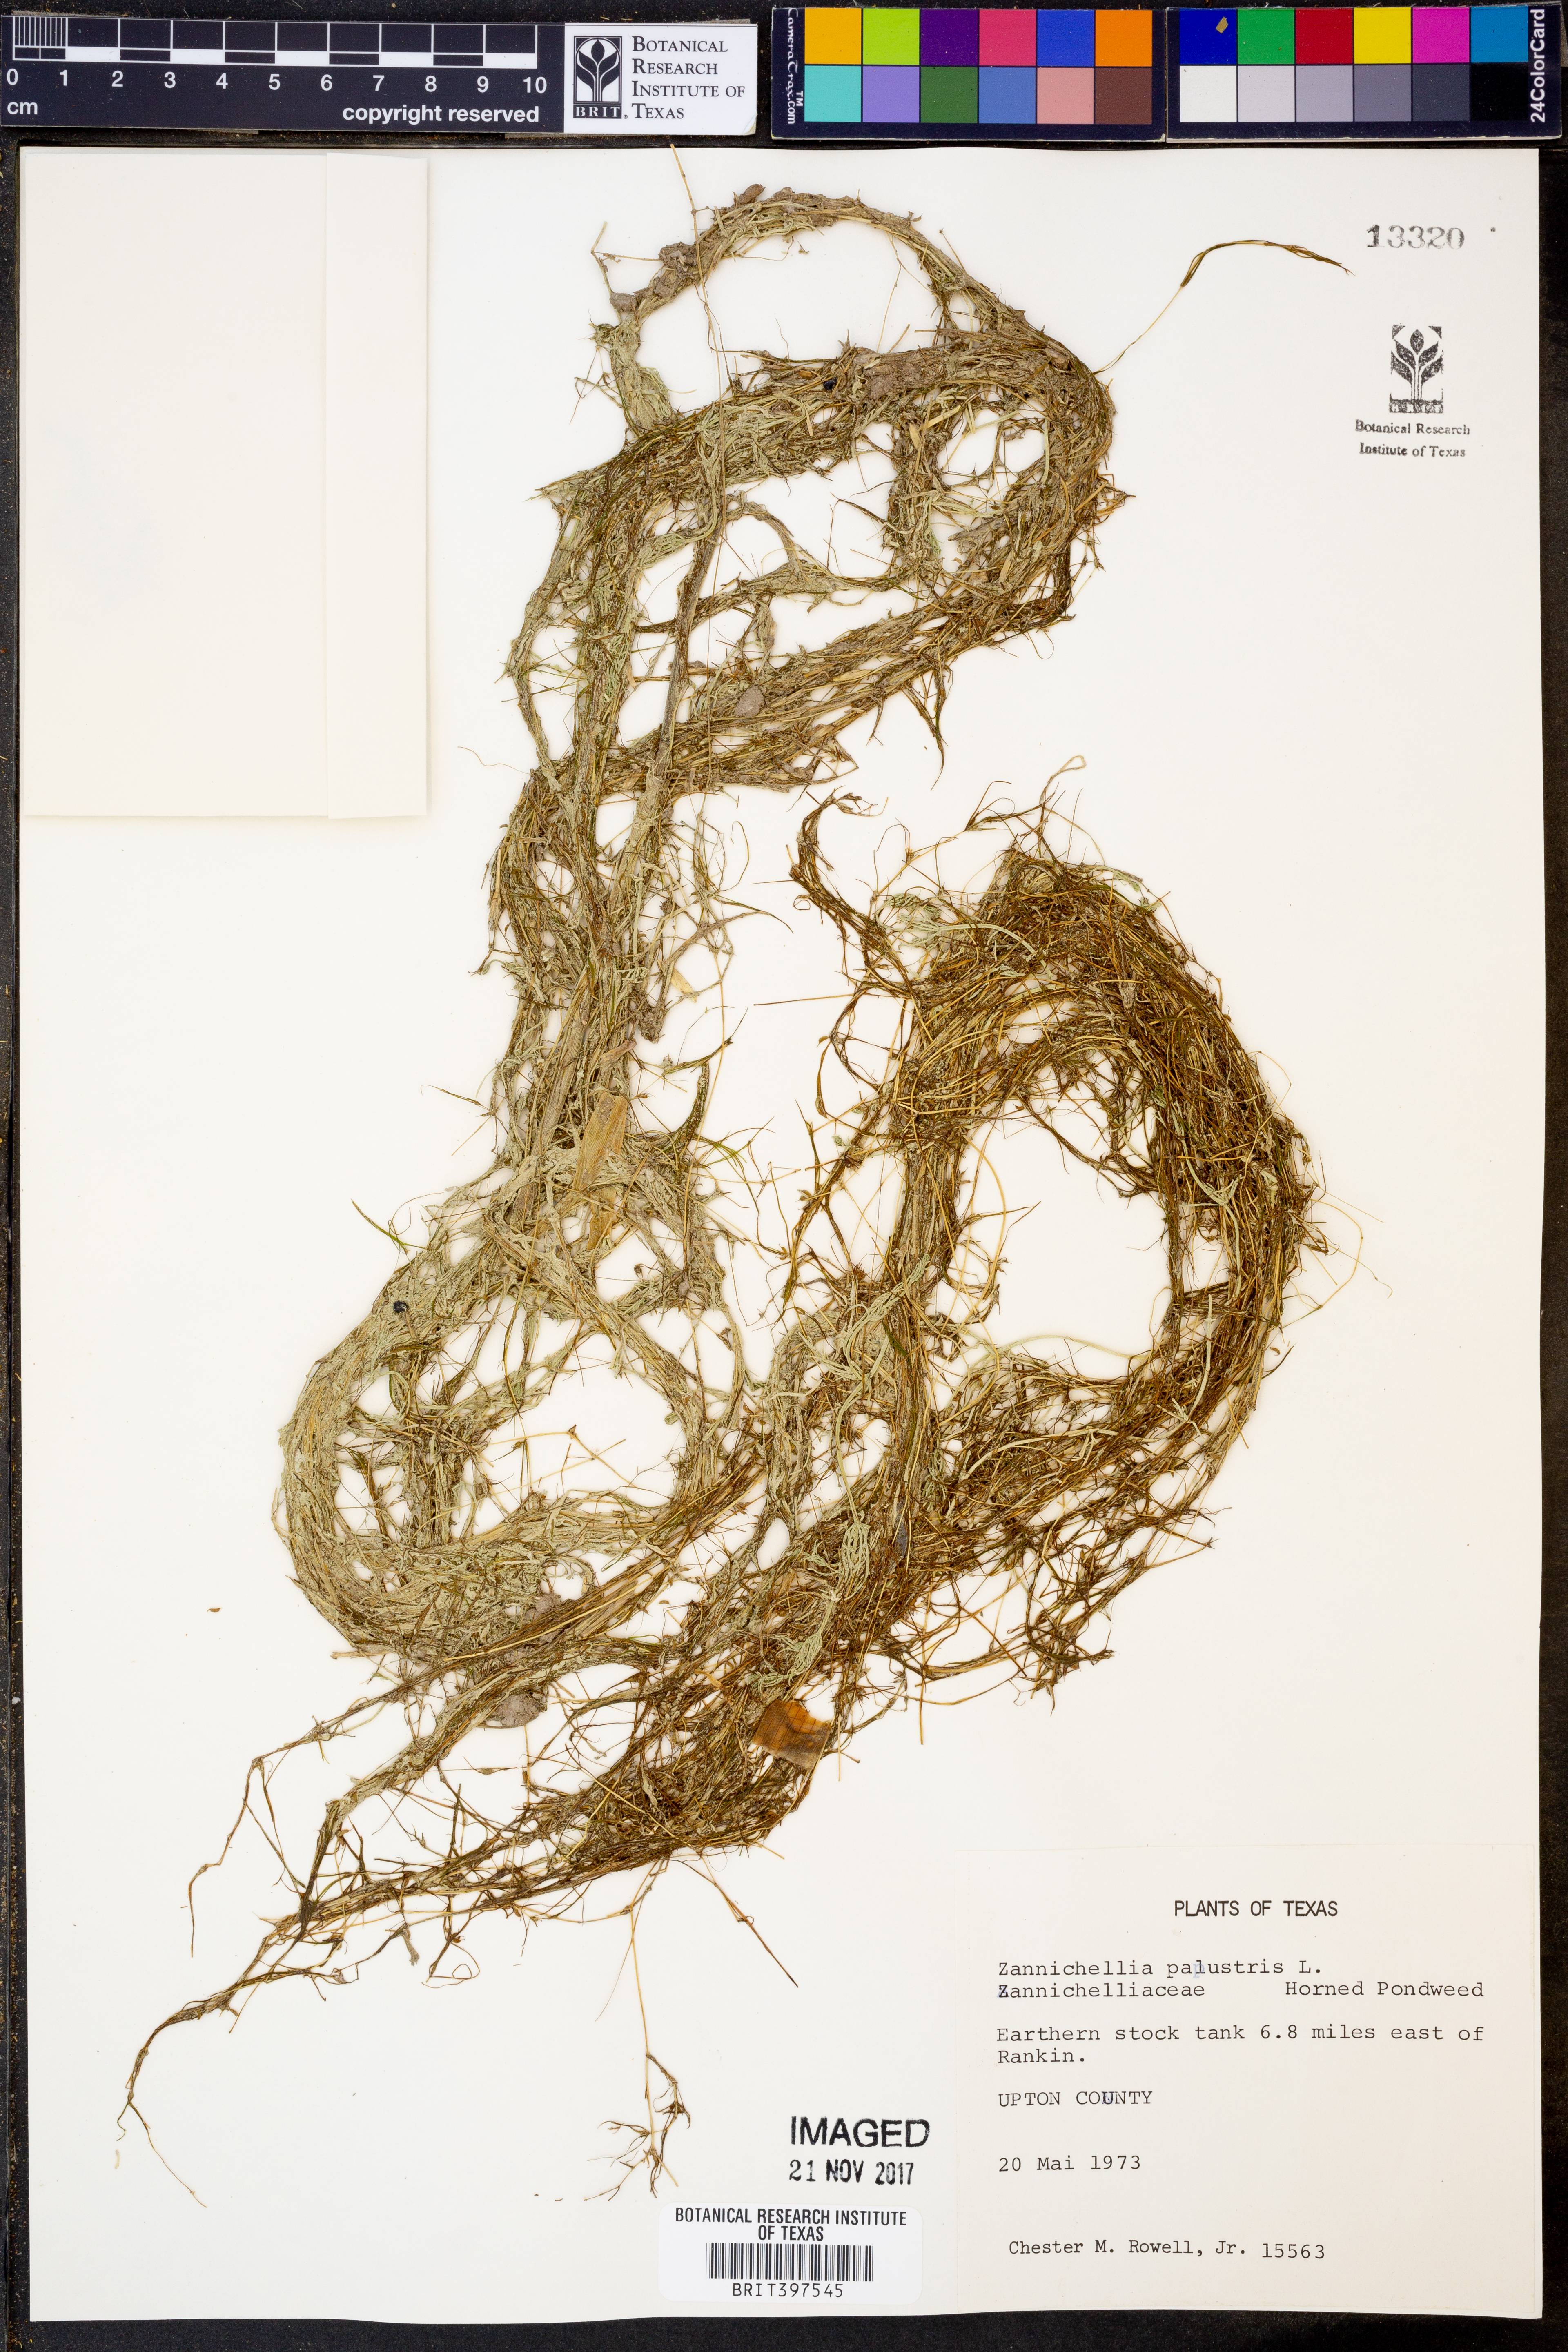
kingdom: Plantae
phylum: Tracheophyta
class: Liliopsida
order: Alismatales
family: Potamogetonaceae
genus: Zannichellia
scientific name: Zannichellia palustris
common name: Horned pondweed
